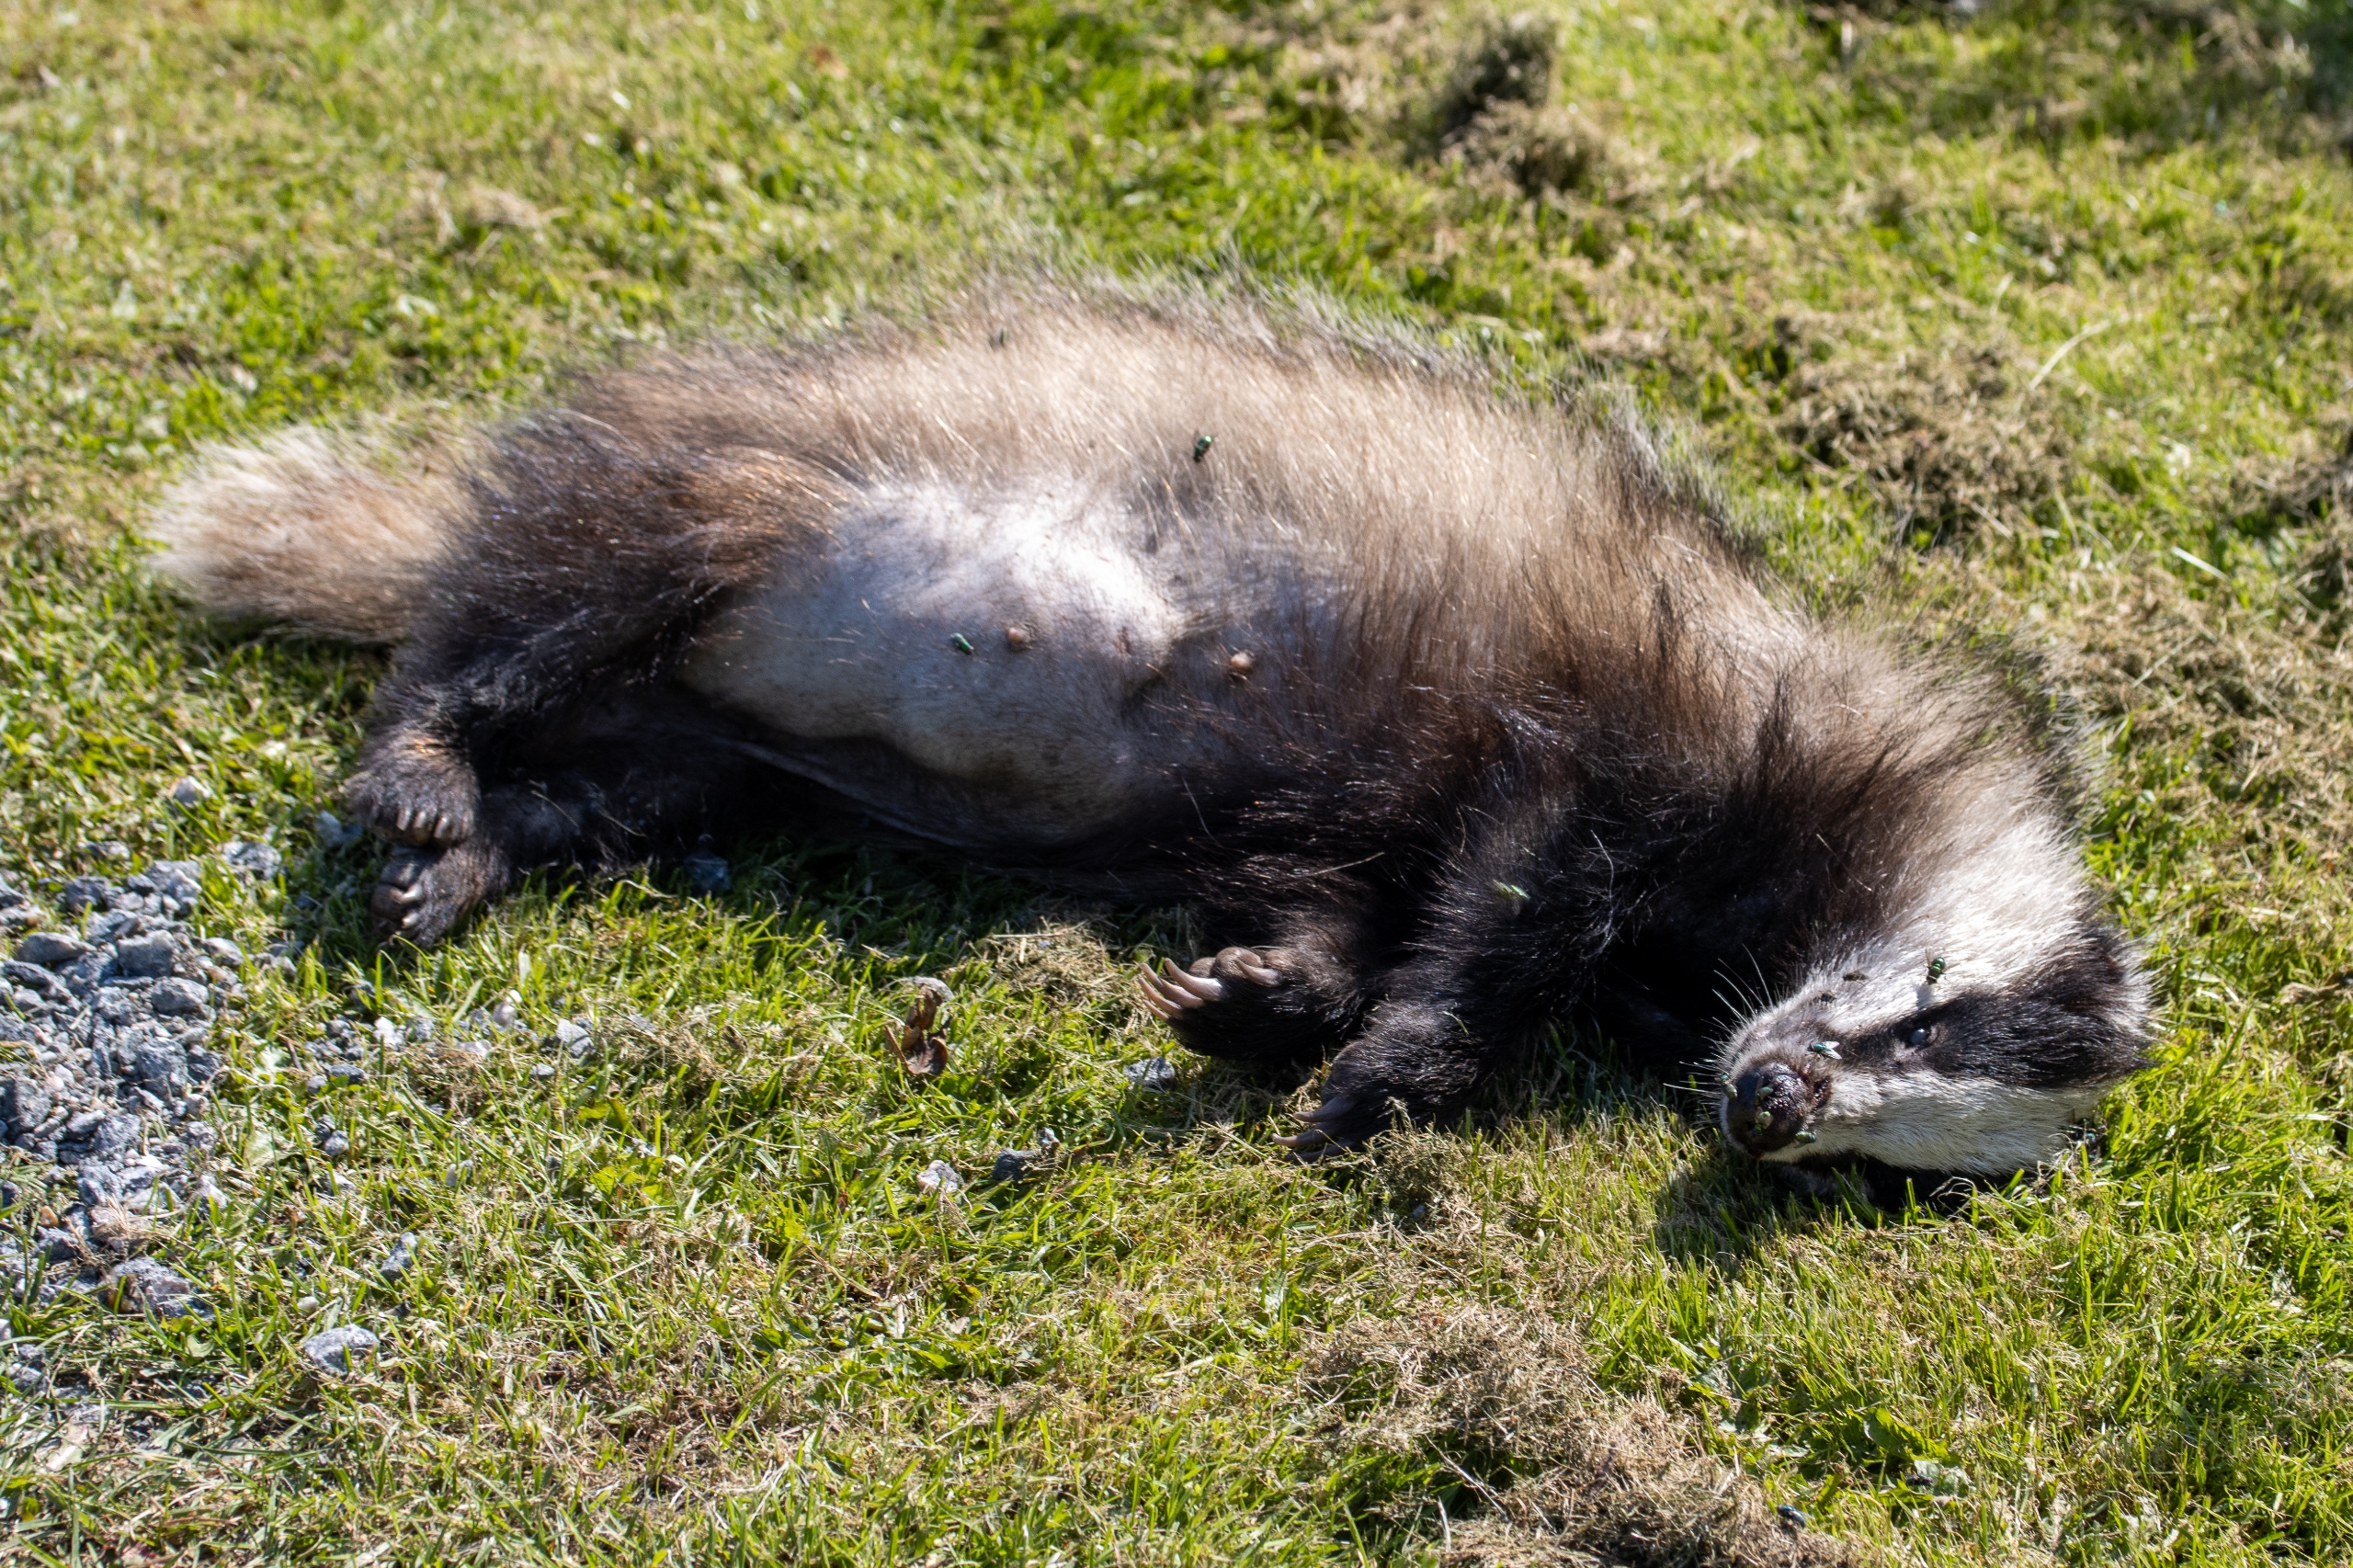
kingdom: Animalia
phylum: Chordata
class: Mammalia
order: Carnivora
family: Mustelidae
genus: Meles
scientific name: Meles meles
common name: Grævling
